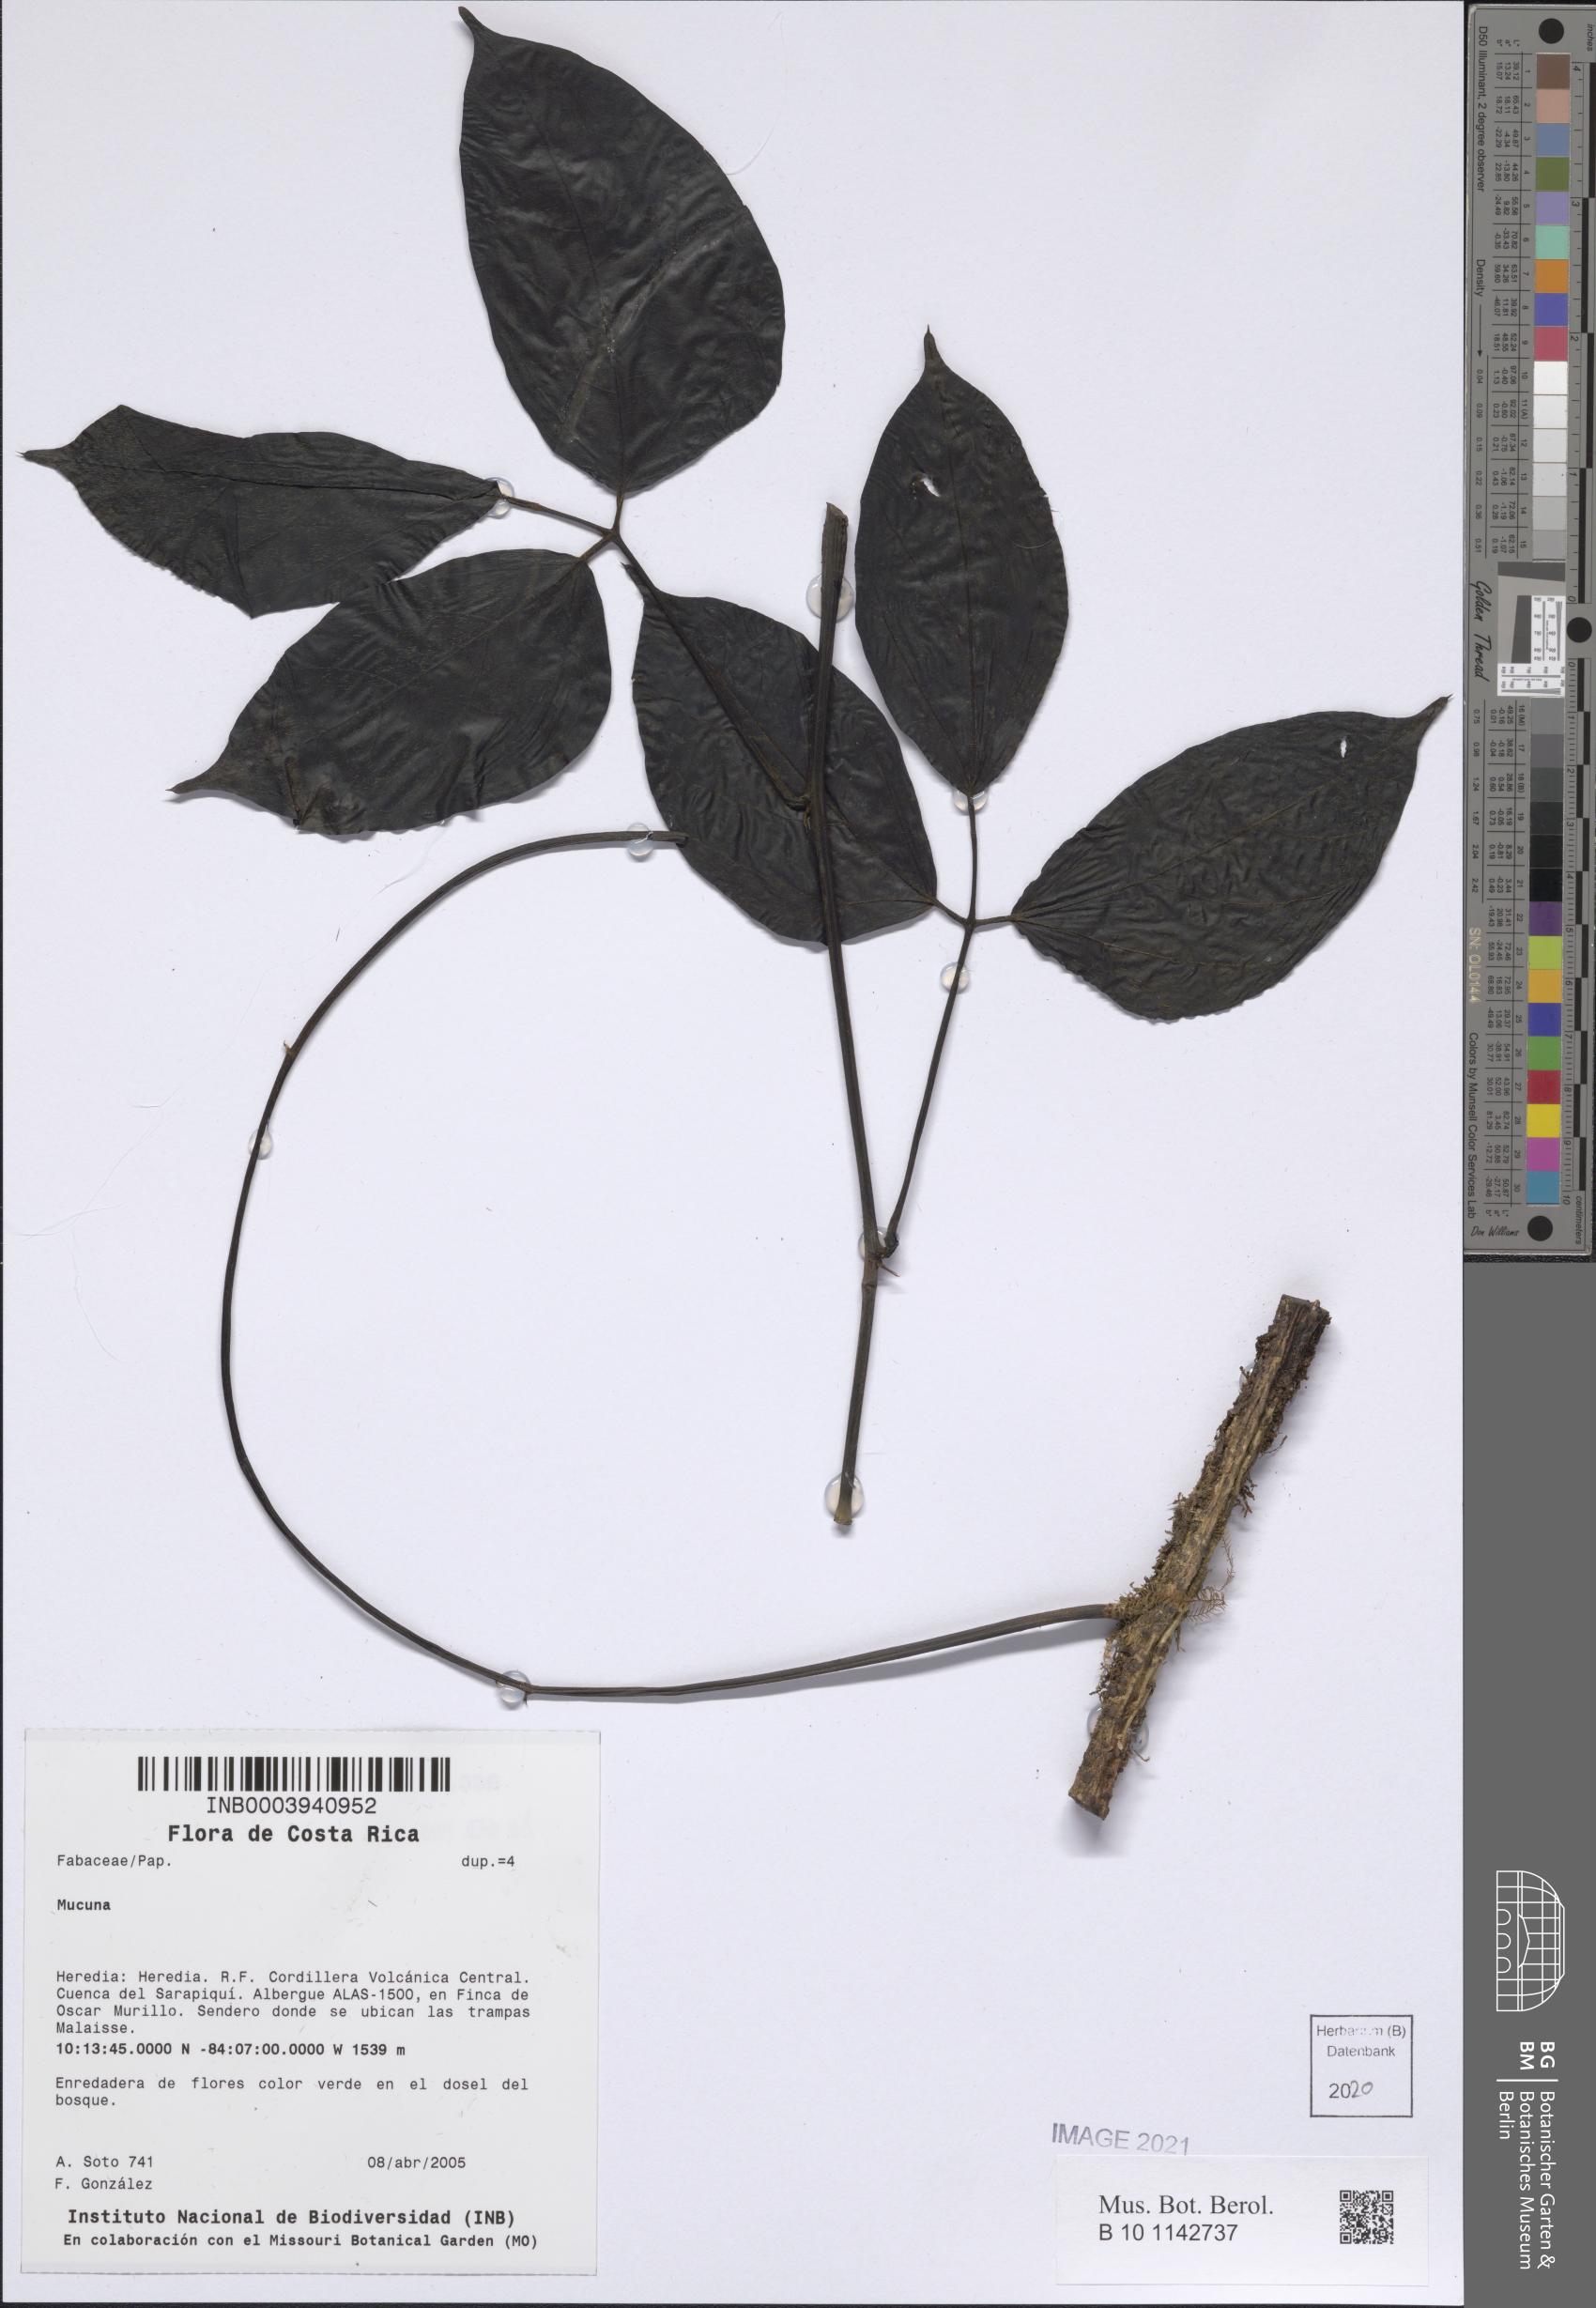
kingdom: Plantae
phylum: Tracheophyta
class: Magnoliopsida
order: Fabales
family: Fabaceae
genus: Mucuna
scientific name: Mucuna
